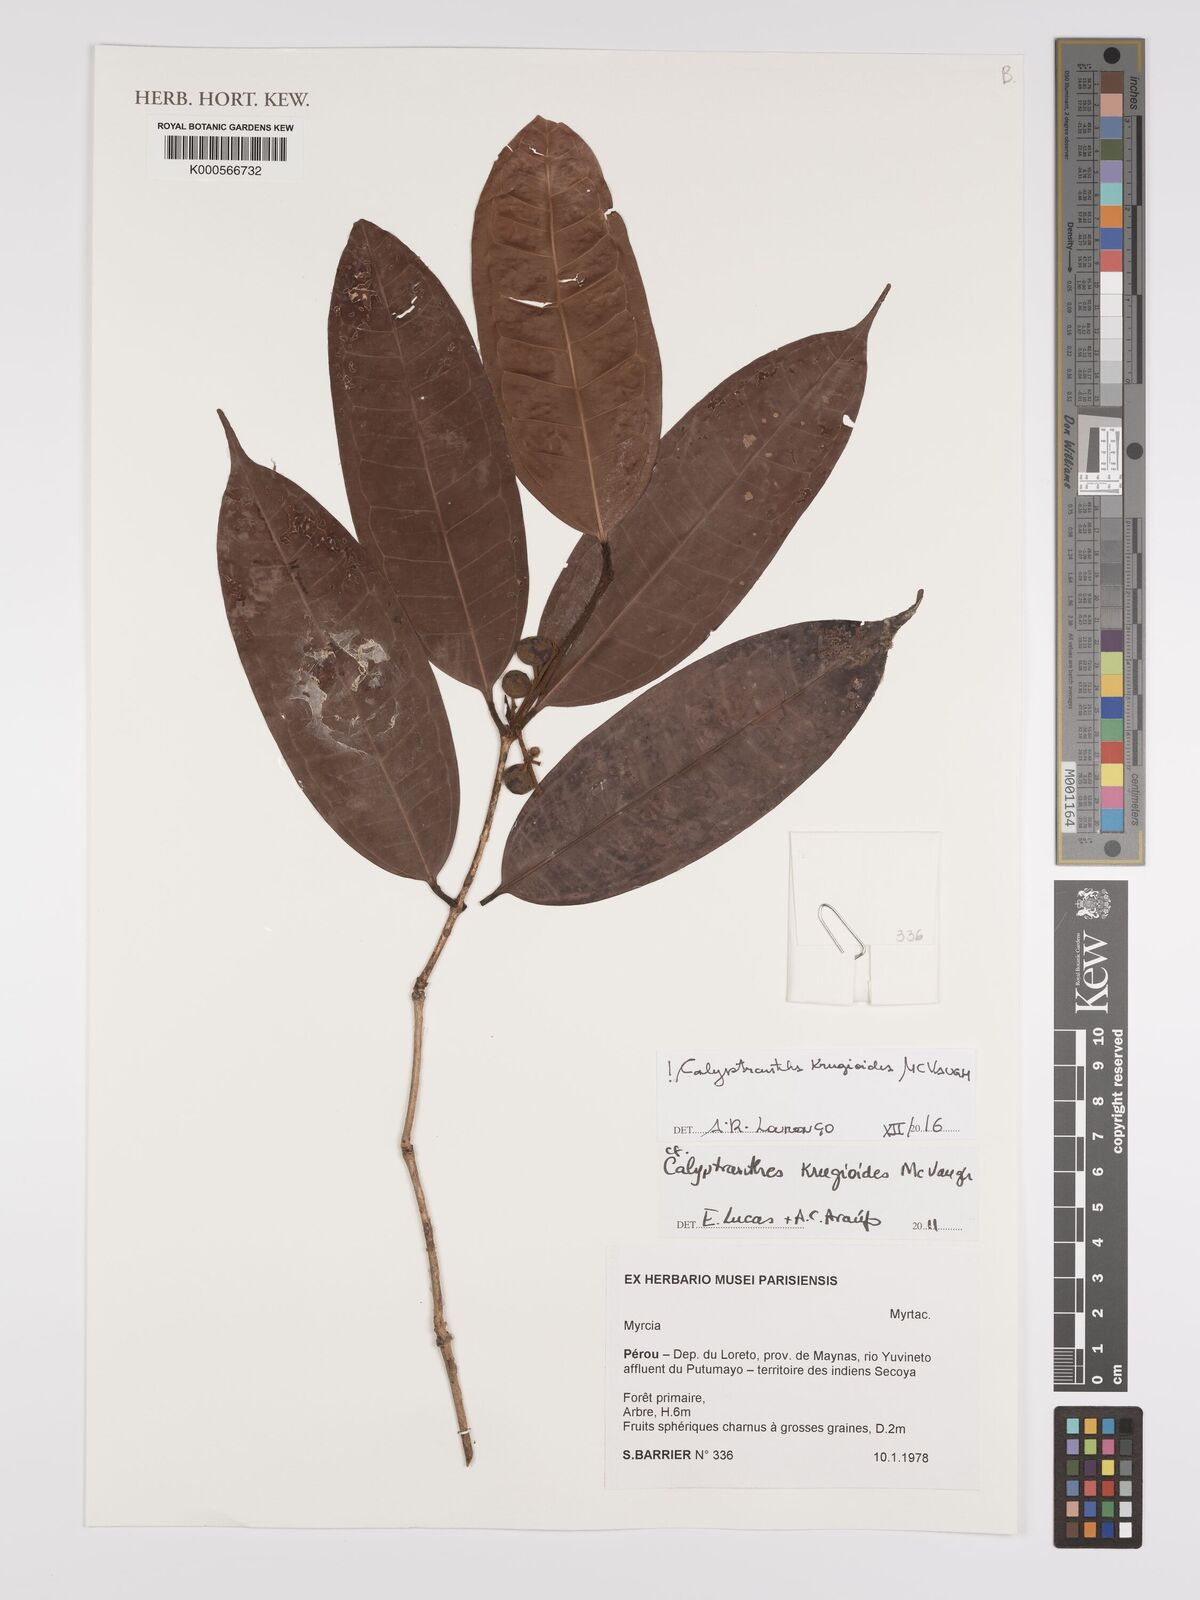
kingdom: Plantae
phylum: Tracheophyta
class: Magnoliopsida
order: Myrtales
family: Myrtaceae
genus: Myrcia
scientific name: Myrcia krugioides
